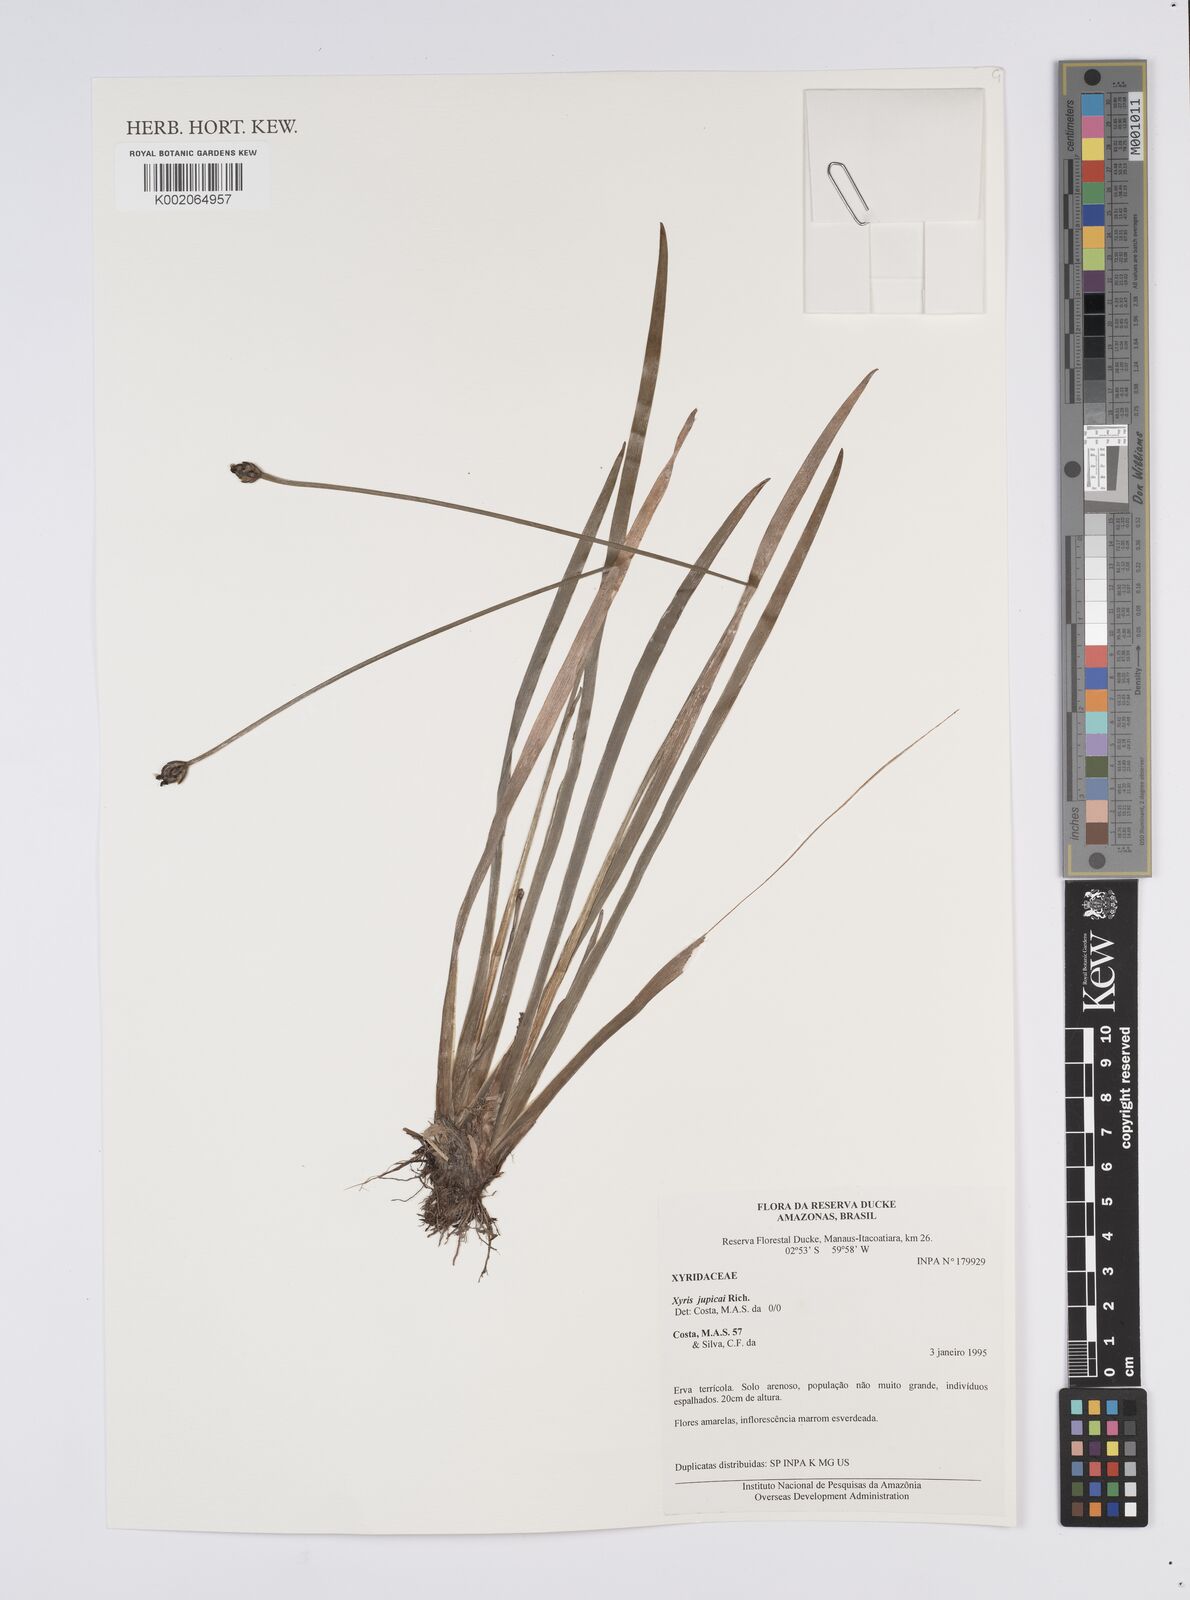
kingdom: Plantae
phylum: Tracheophyta
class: Liliopsida
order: Poales
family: Xyridaceae
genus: Xyris
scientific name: Xyris jupicai
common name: Richard's yelloweyed grass
